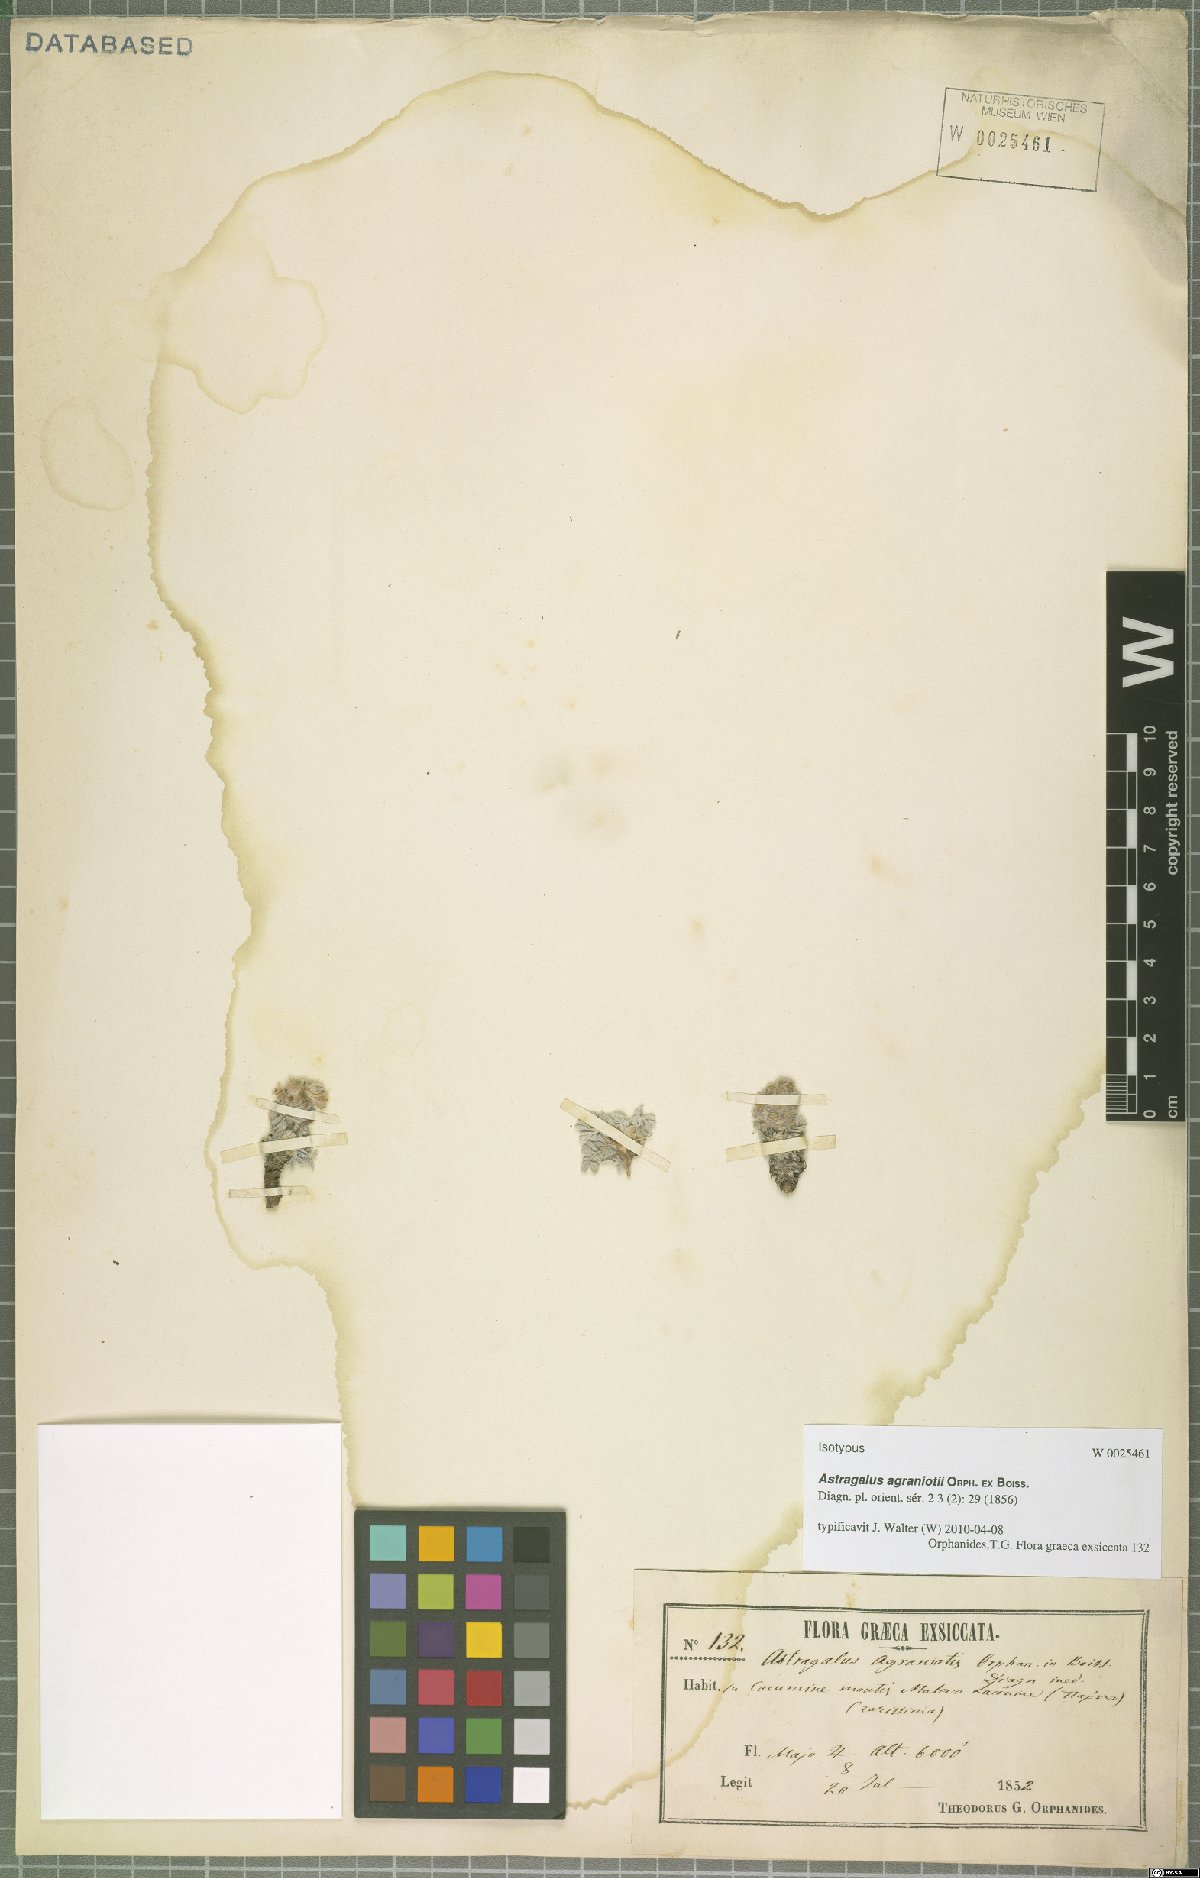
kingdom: Plantae
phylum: Tracheophyta
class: Magnoliopsida
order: Fabales
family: Fabaceae
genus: Astragalus
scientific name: Astragalus agraniotii
